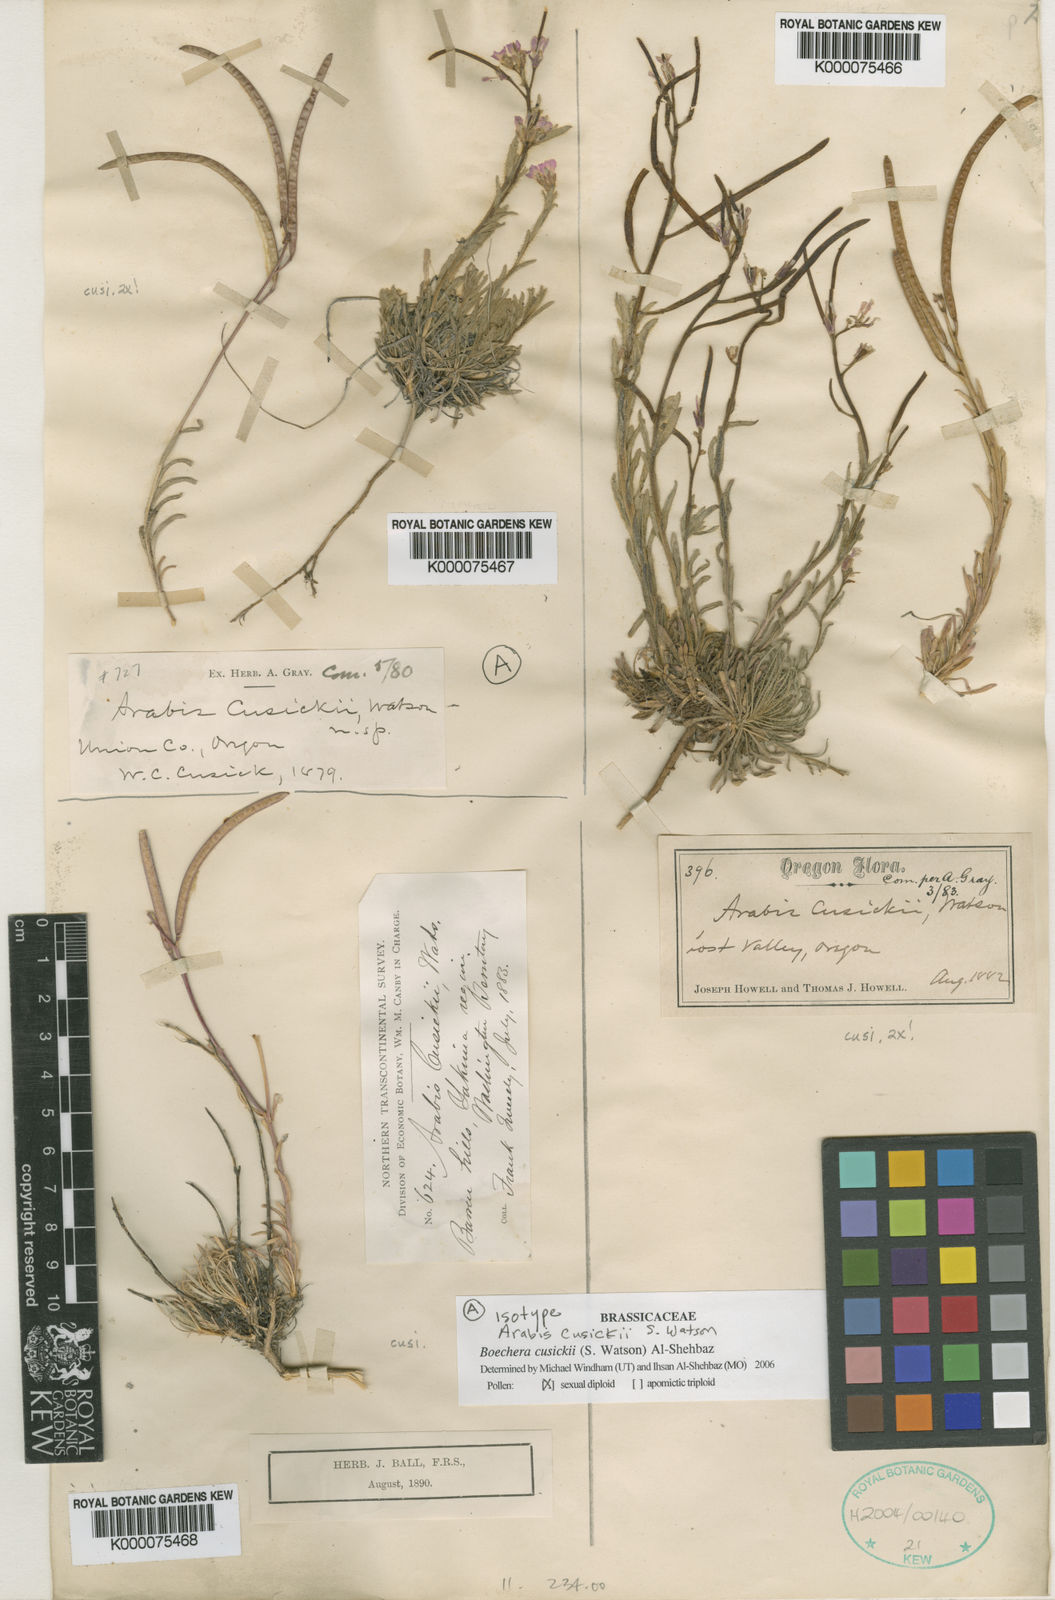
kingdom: Plantae
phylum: Tracheophyta
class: Magnoliopsida
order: Brassicales
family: Brassicaceae
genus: Arabis
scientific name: Arabis
